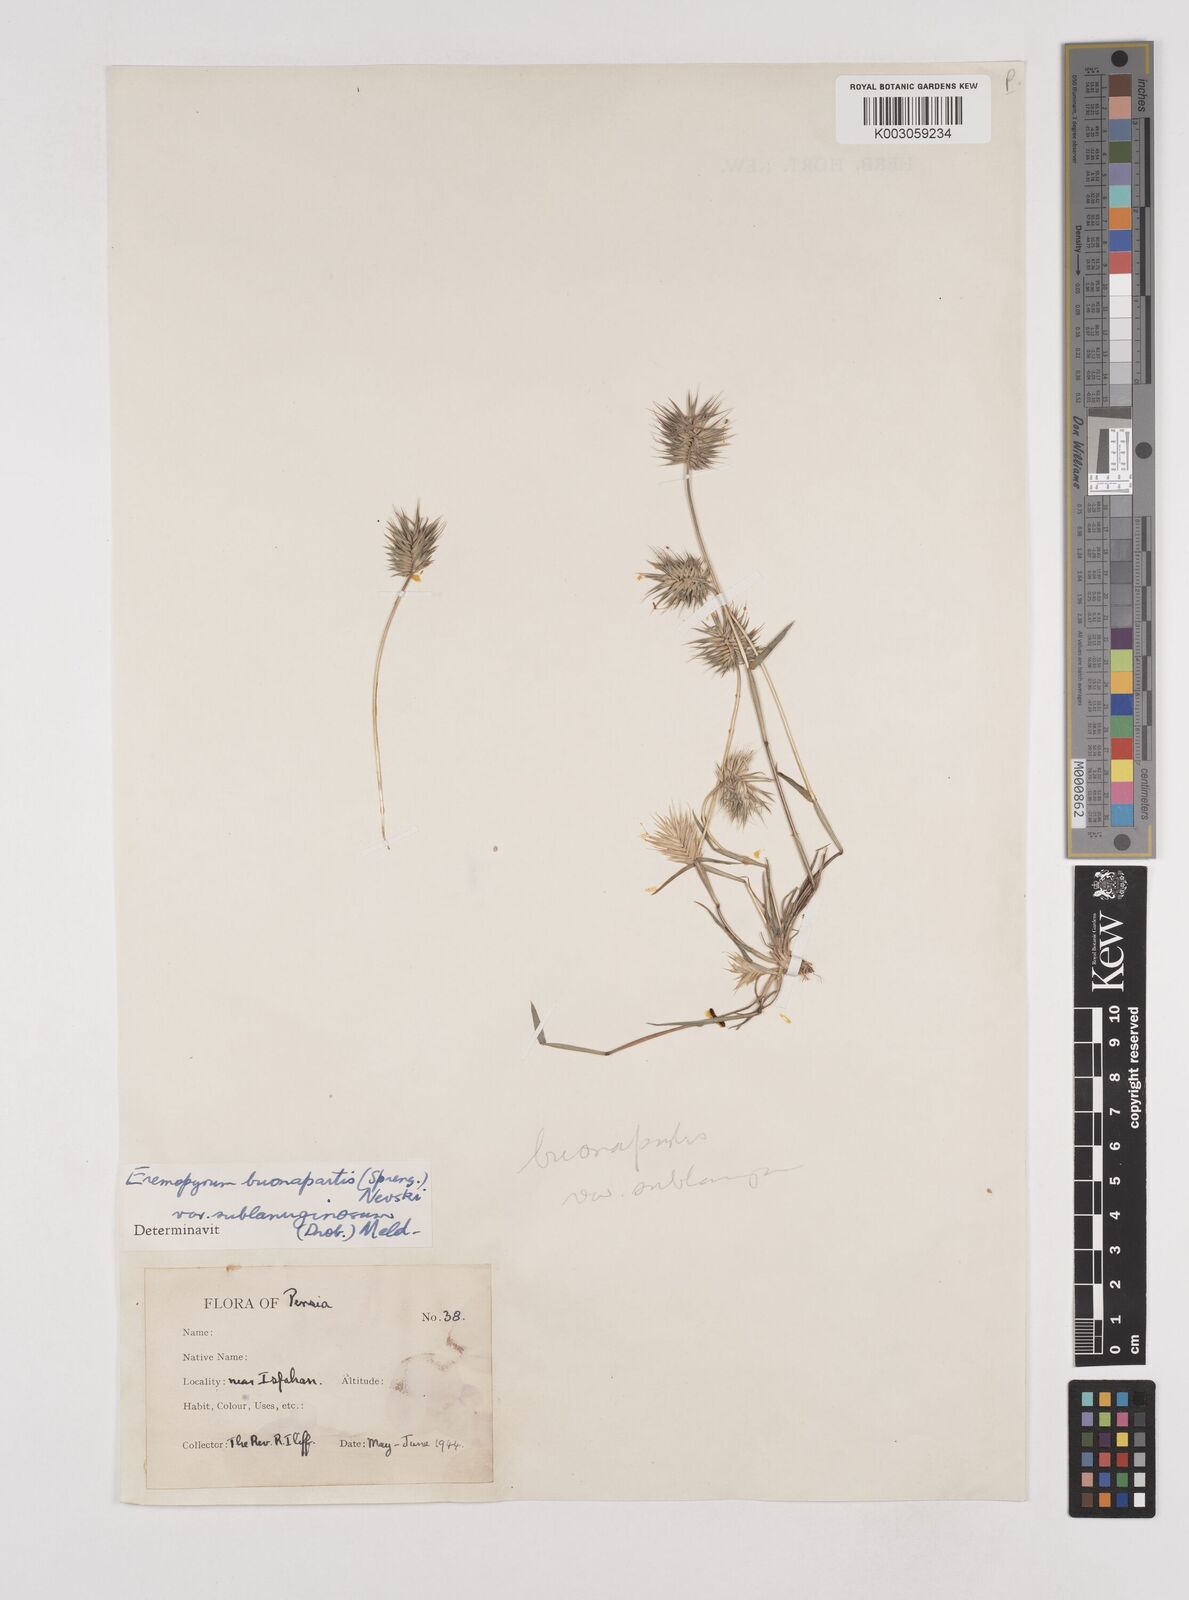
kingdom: Plantae
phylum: Tracheophyta
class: Liliopsida
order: Poales
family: Poaceae
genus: Eremopyrum
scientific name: Eremopyrum bonaepartis
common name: Tapertip false wheatgrass
